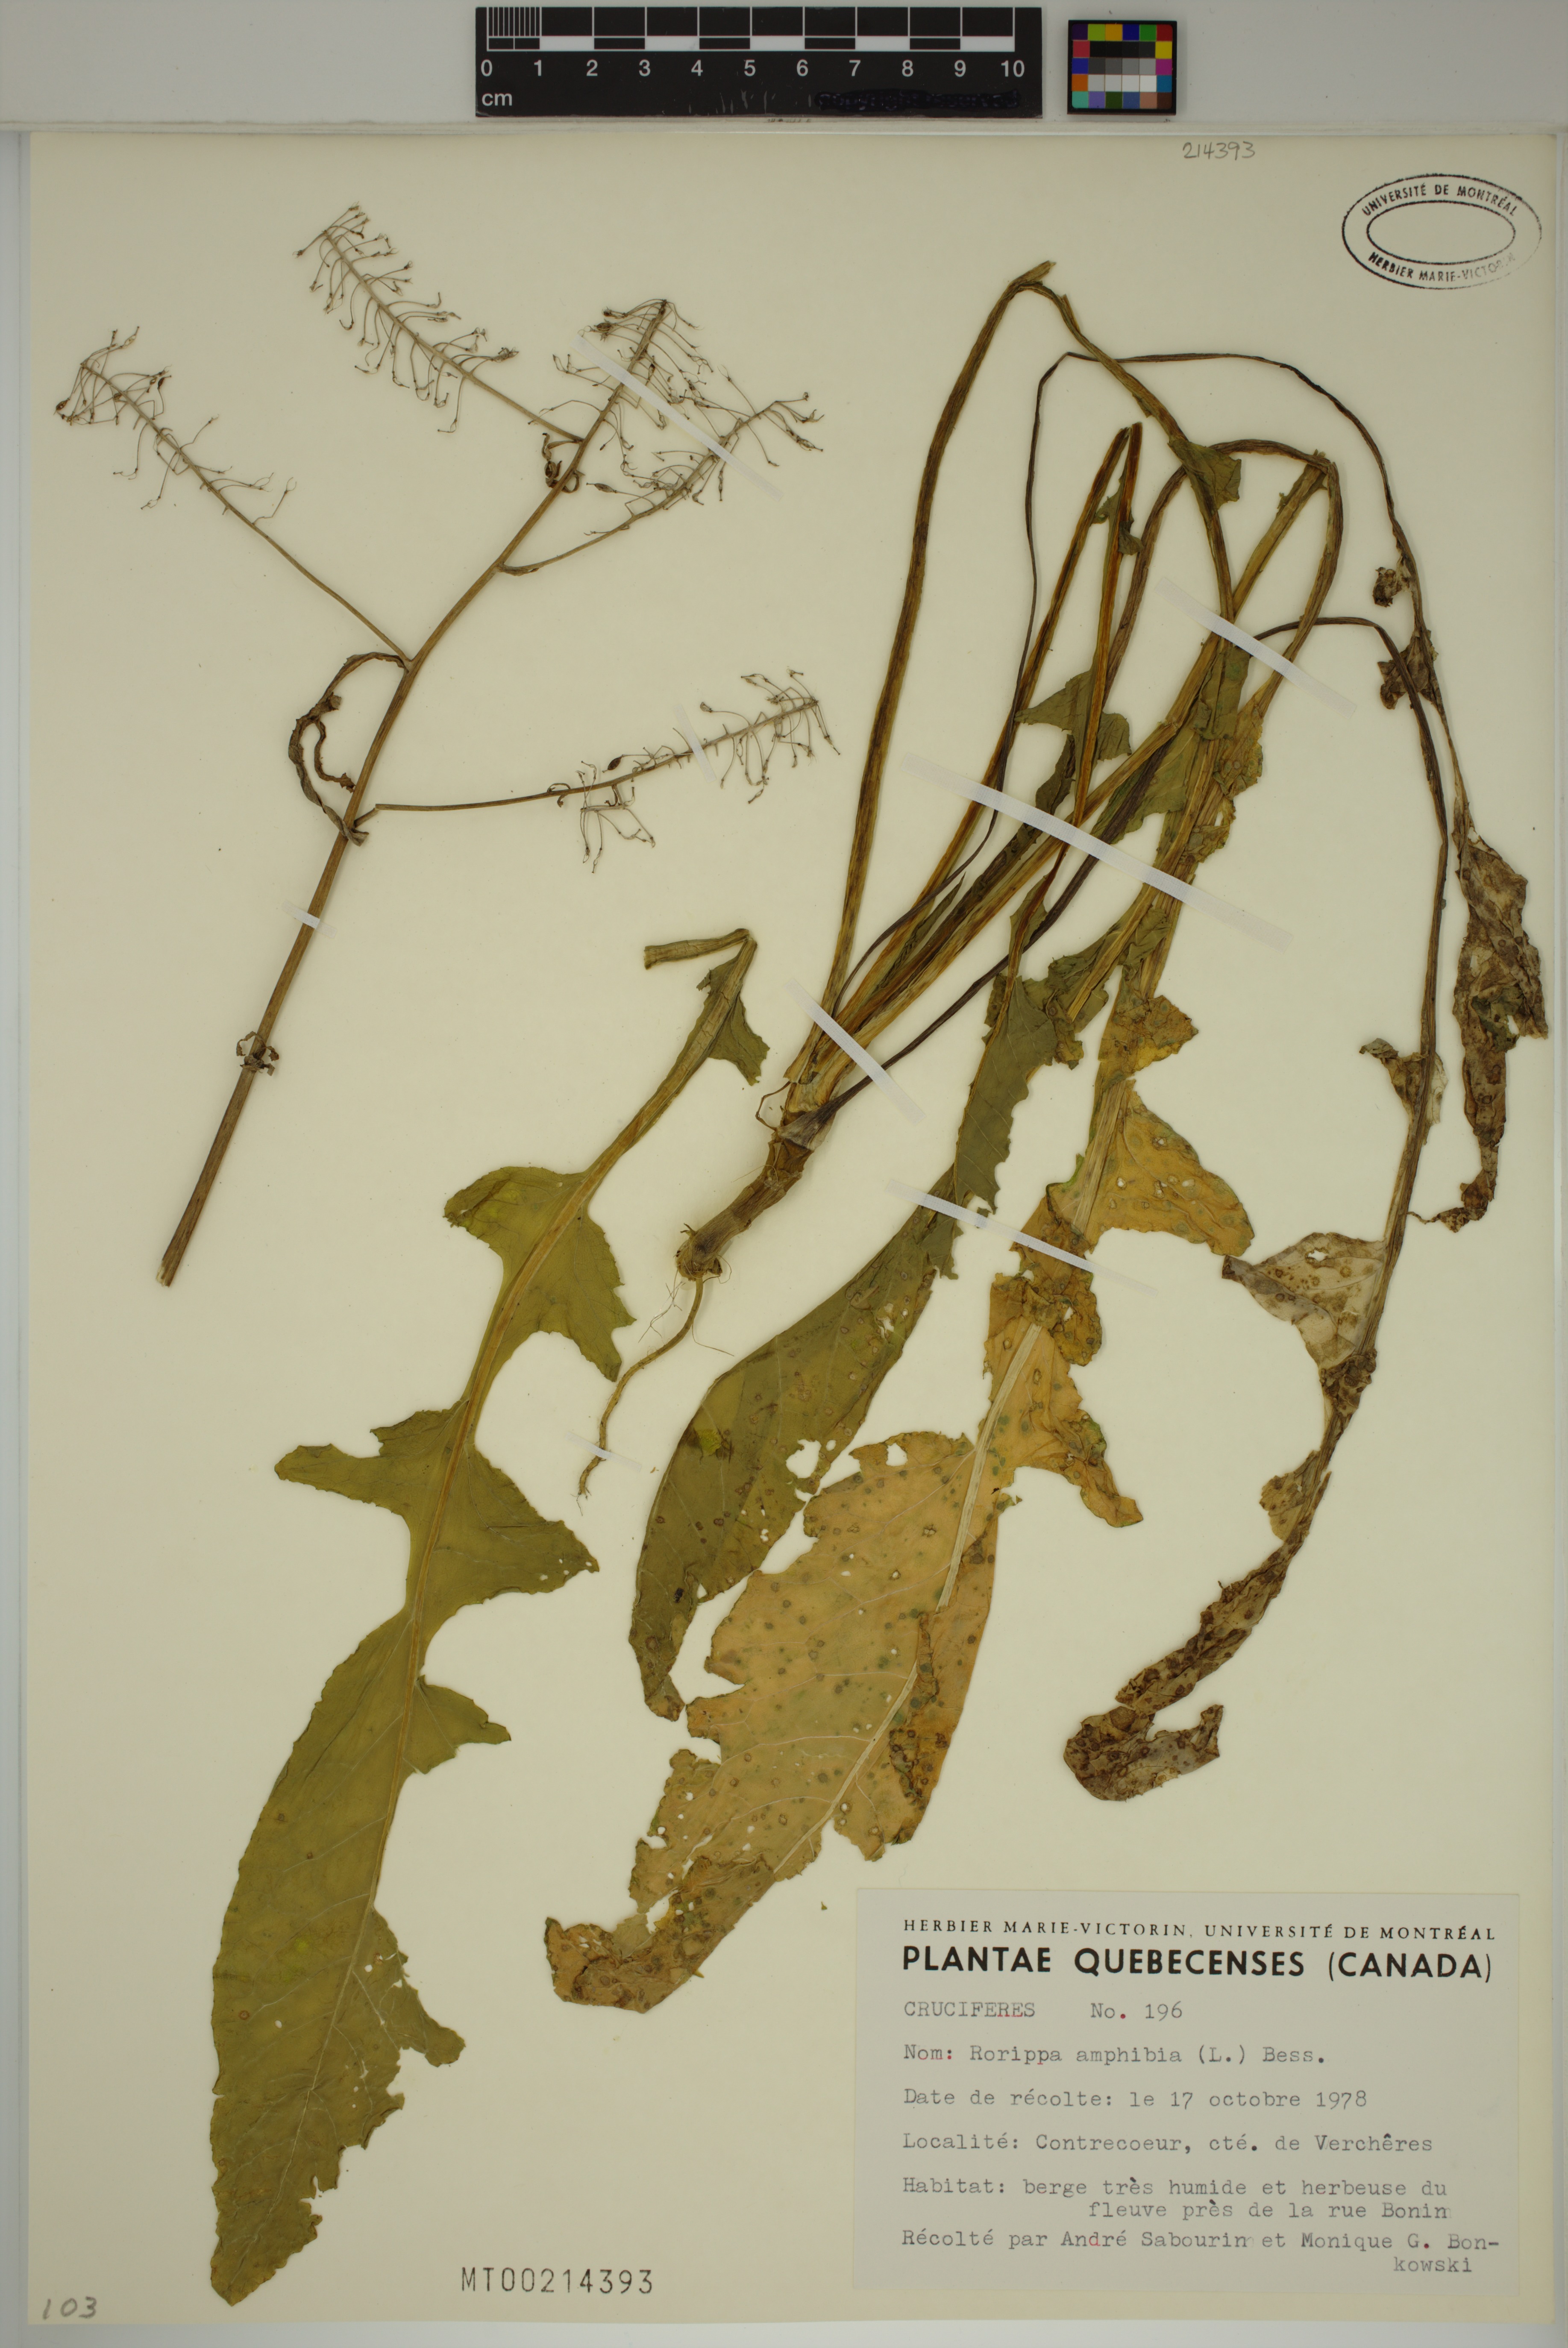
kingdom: Plantae
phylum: Tracheophyta
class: Magnoliopsida
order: Brassicales
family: Brassicaceae
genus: Rorippa
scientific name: Rorippa amphibia
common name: Great yellow-cress
